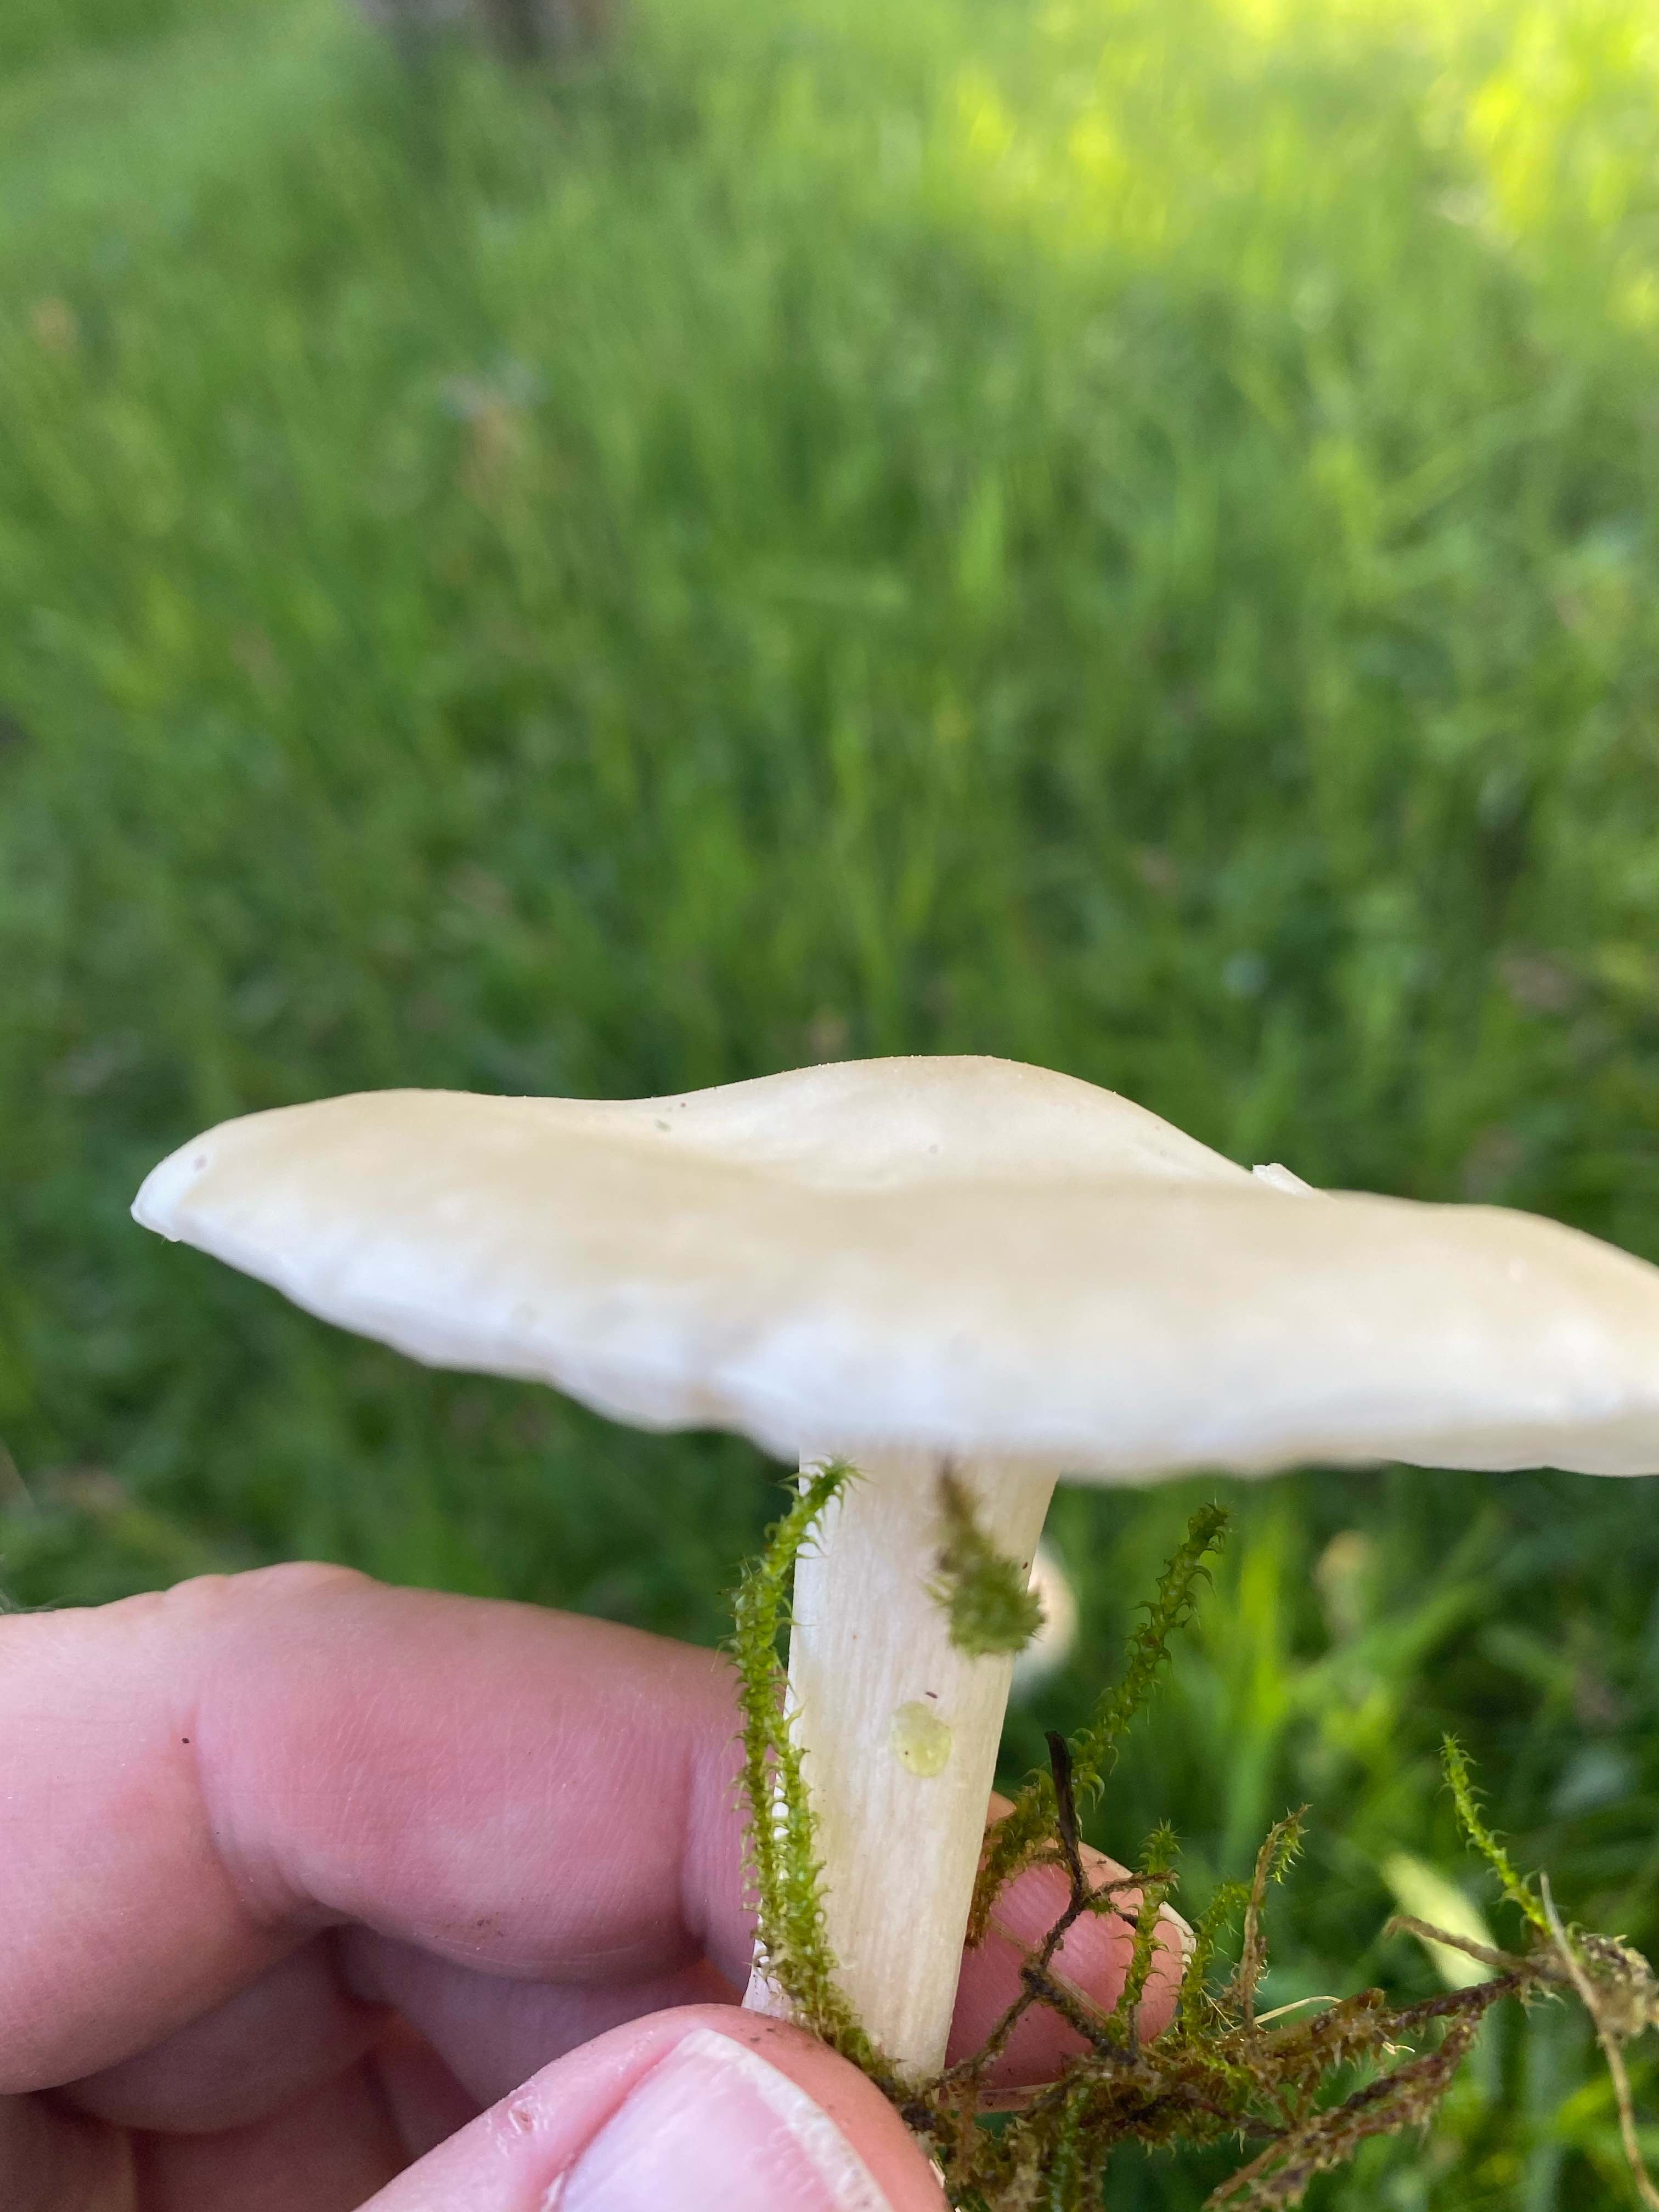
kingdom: Fungi
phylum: Basidiomycota
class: Agaricomycetes
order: Agaricales
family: Tricholomataceae
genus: Melanoleuca
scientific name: Melanoleuca strictipes
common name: sommer-munkehat
